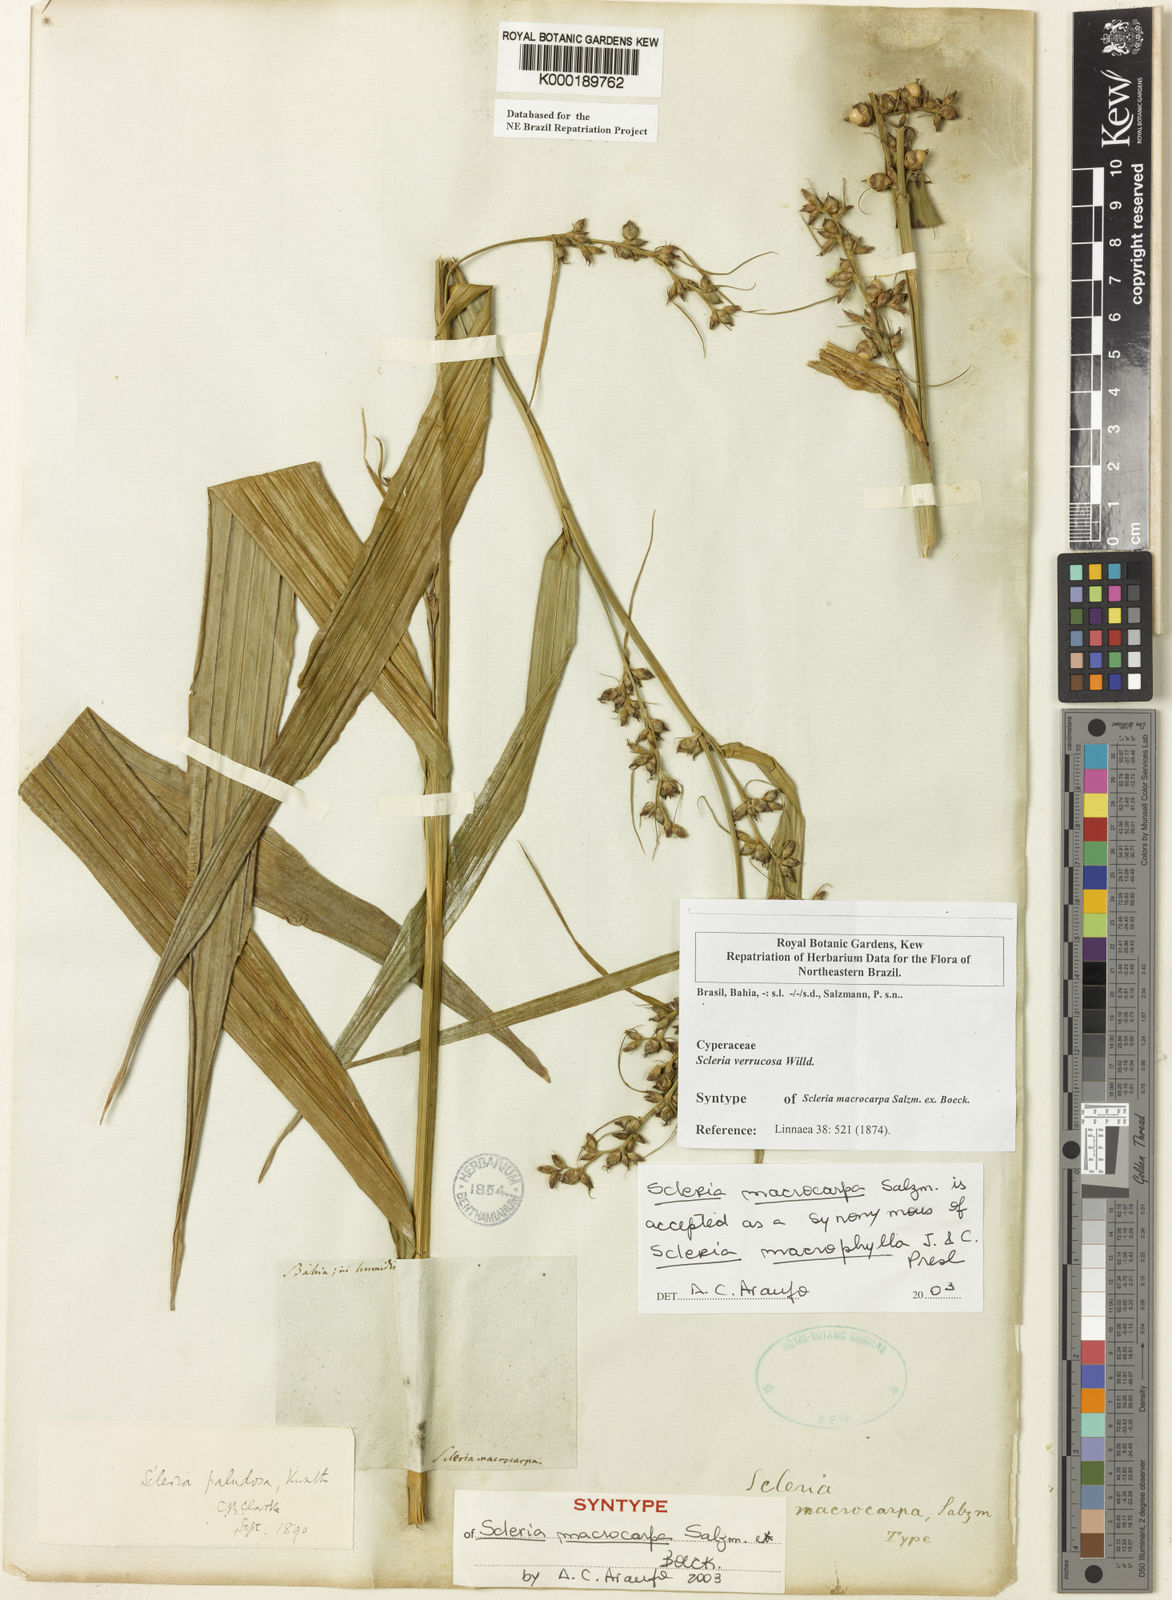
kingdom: Plantae
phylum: Tracheophyta
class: Liliopsida
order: Poales
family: Cyperaceae
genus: Scleria
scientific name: Scleria macrophylla
